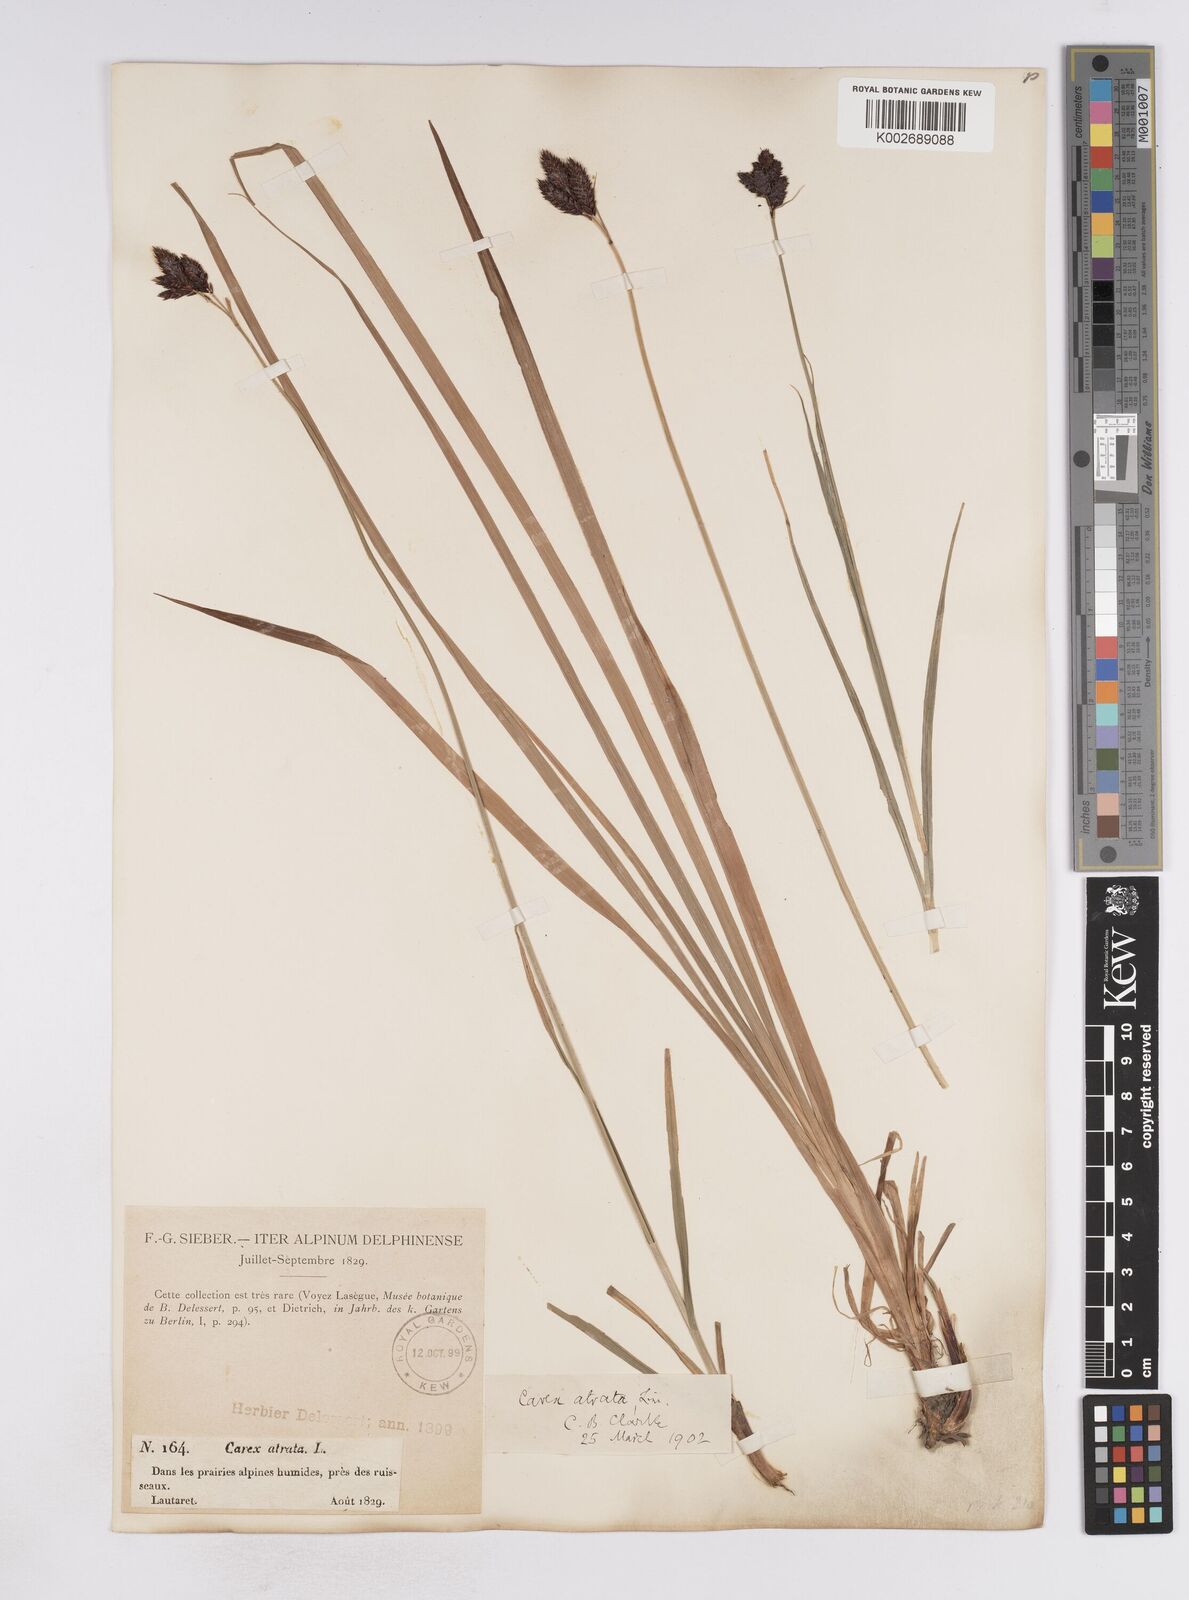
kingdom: Plantae
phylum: Tracheophyta
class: Liliopsida
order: Poales
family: Cyperaceae
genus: Carex
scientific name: Carex atrata
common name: Black alpine sedge
